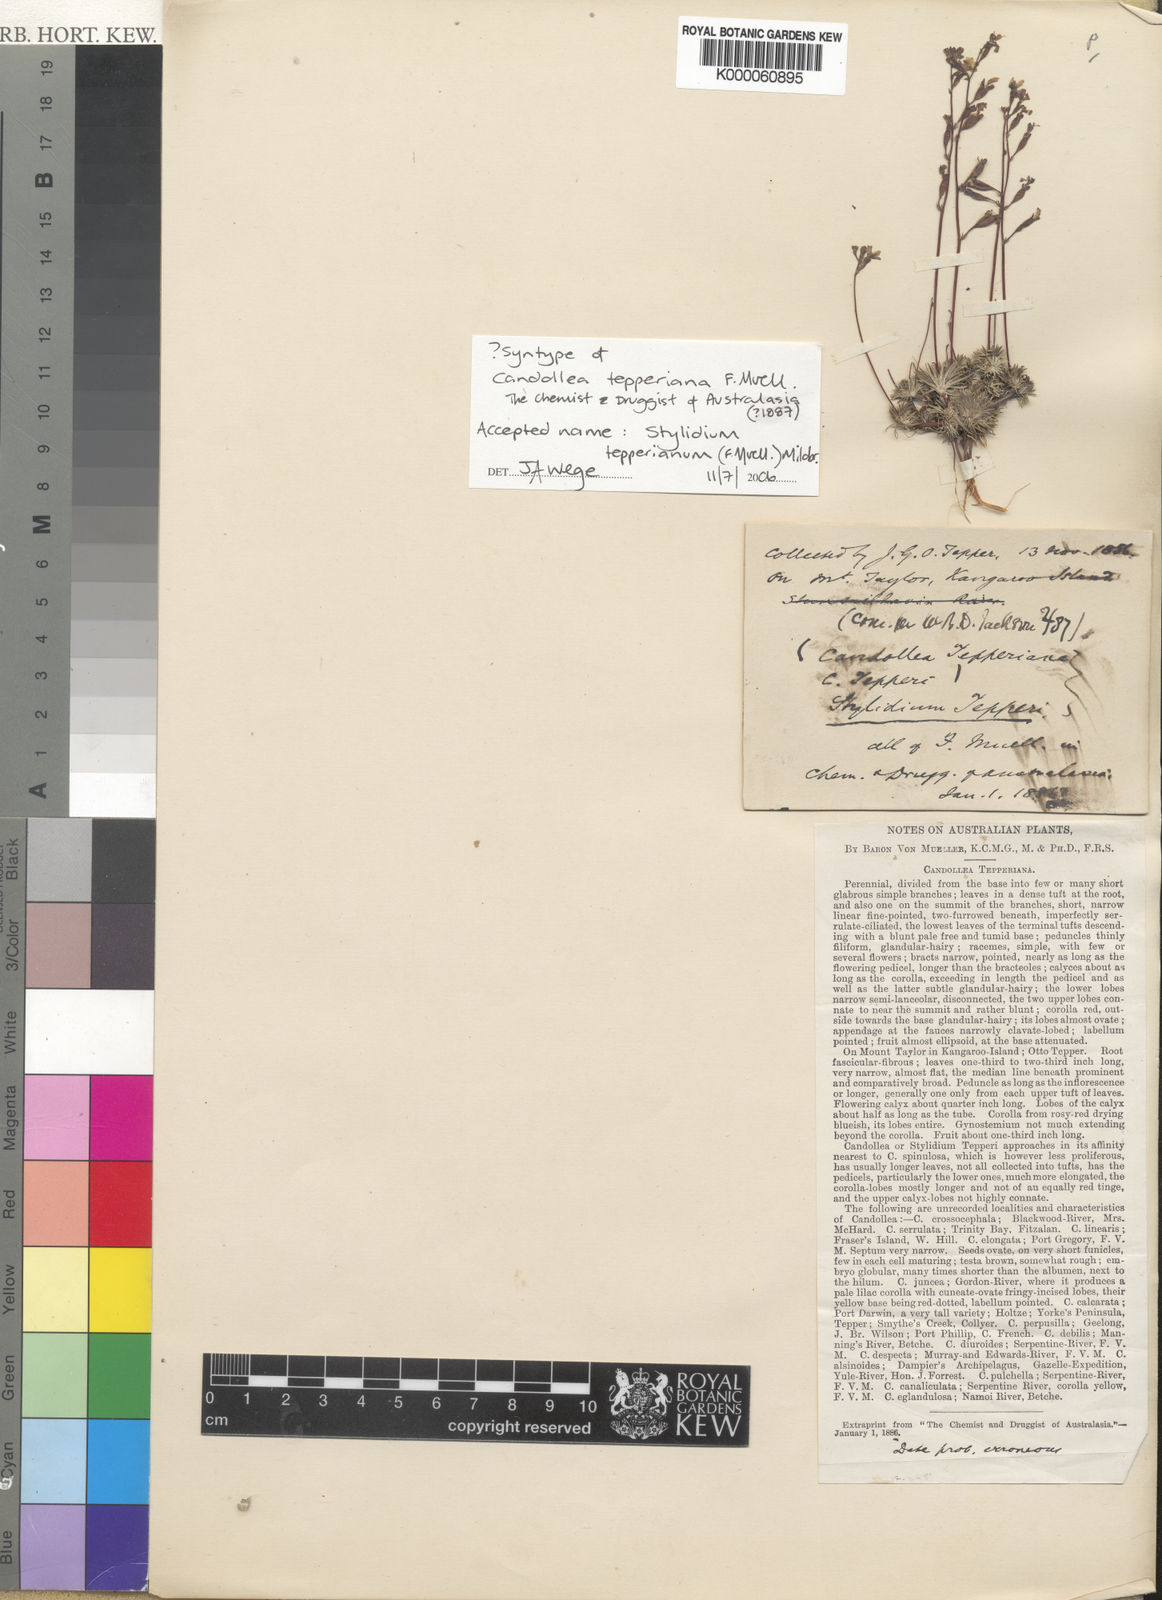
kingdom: Plantae
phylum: Tracheophyta
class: Magnoliopsida
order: Asterales
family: Stylidiaceae
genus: Stylidium
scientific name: Stylidium tepperianum
